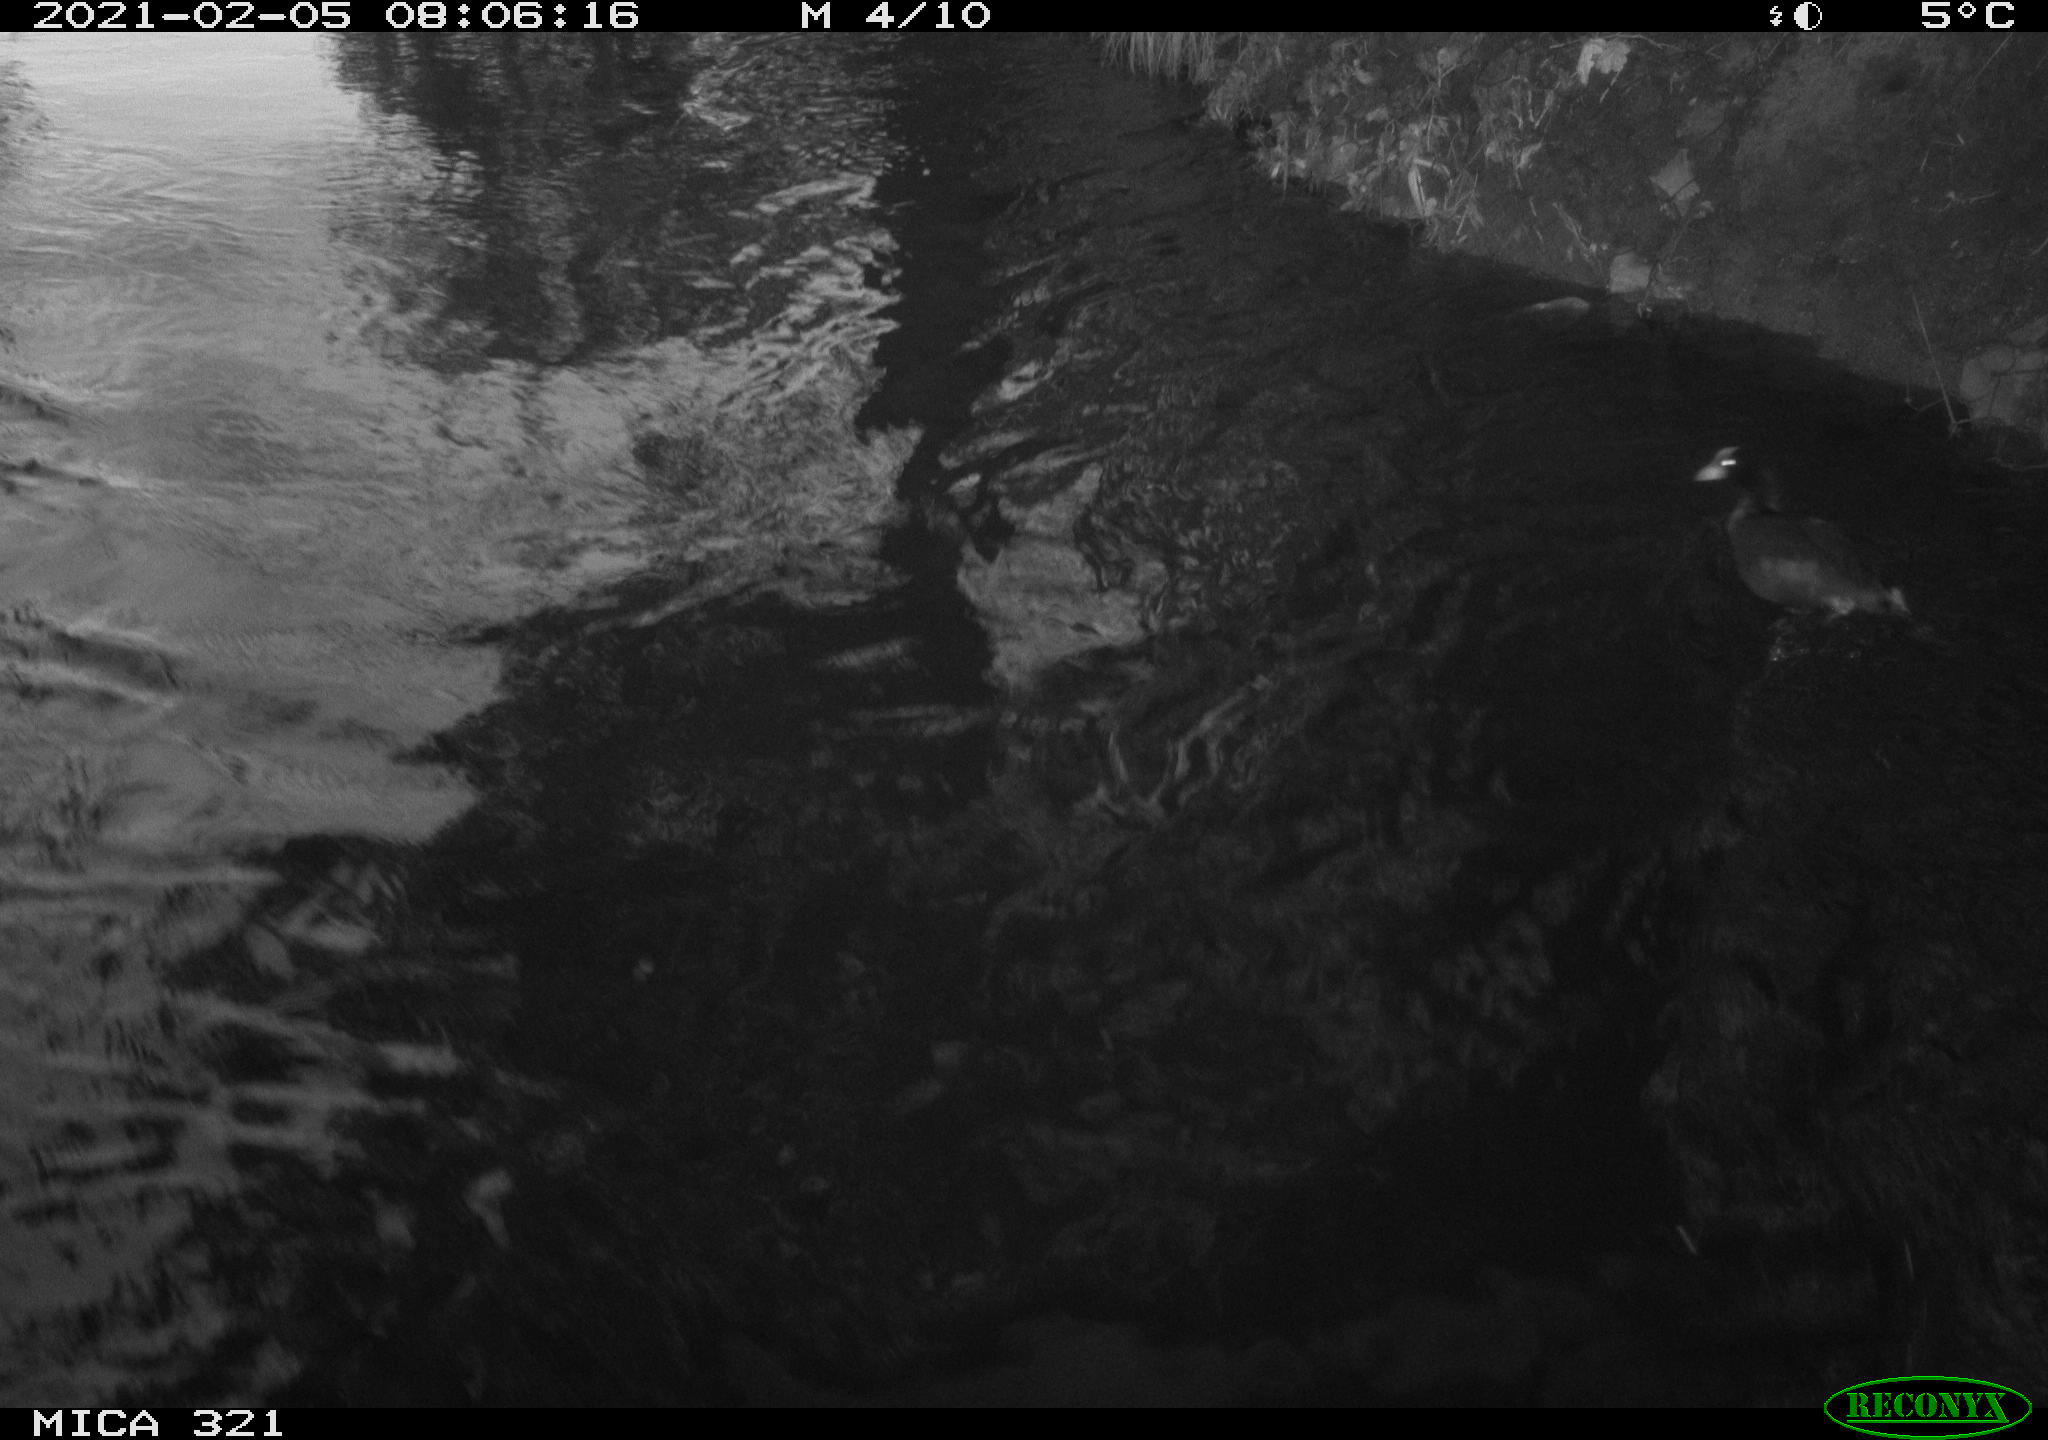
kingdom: Animalia
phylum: Chordata
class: Aves
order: Gruiformes
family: Rallidae
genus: Fulica
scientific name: Fulica atra
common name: Eurasian coot
